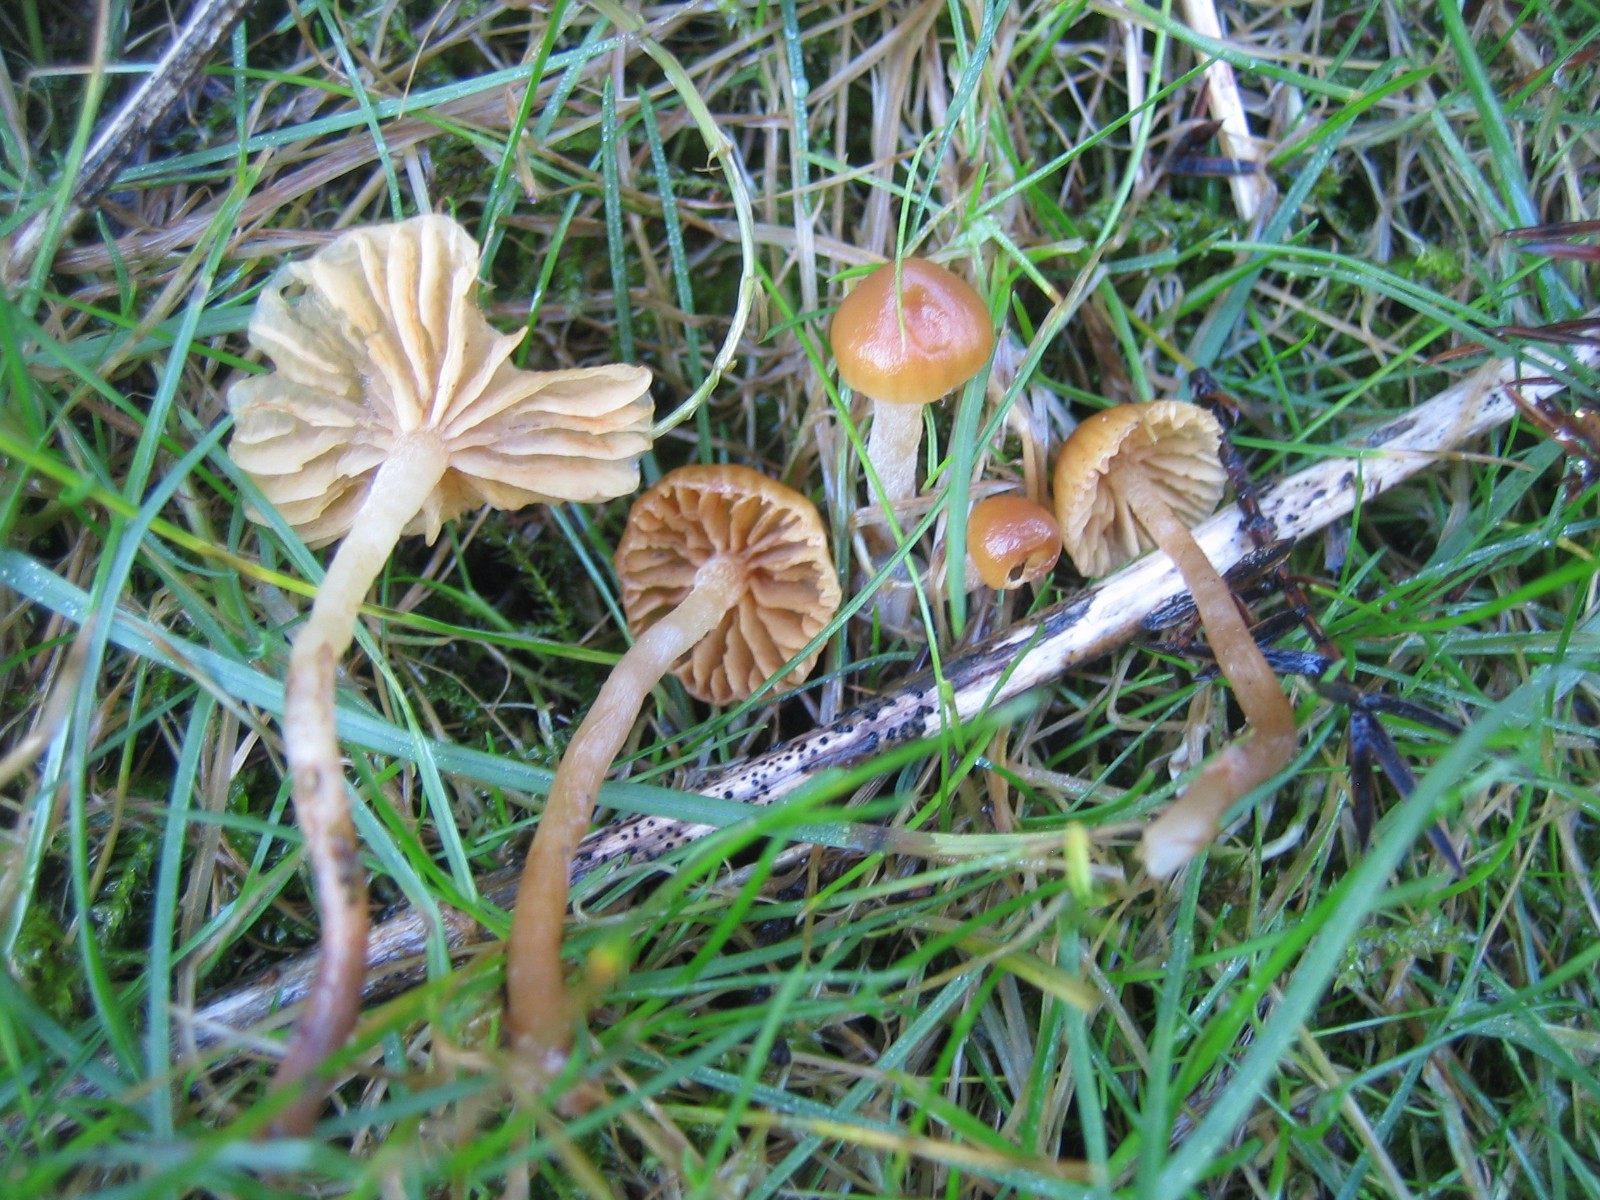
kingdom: Fungi
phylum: Basidiomycota
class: Agaricomycetes
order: Agaricales
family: Hymenogastraceae
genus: Galerina
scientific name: Galerina
